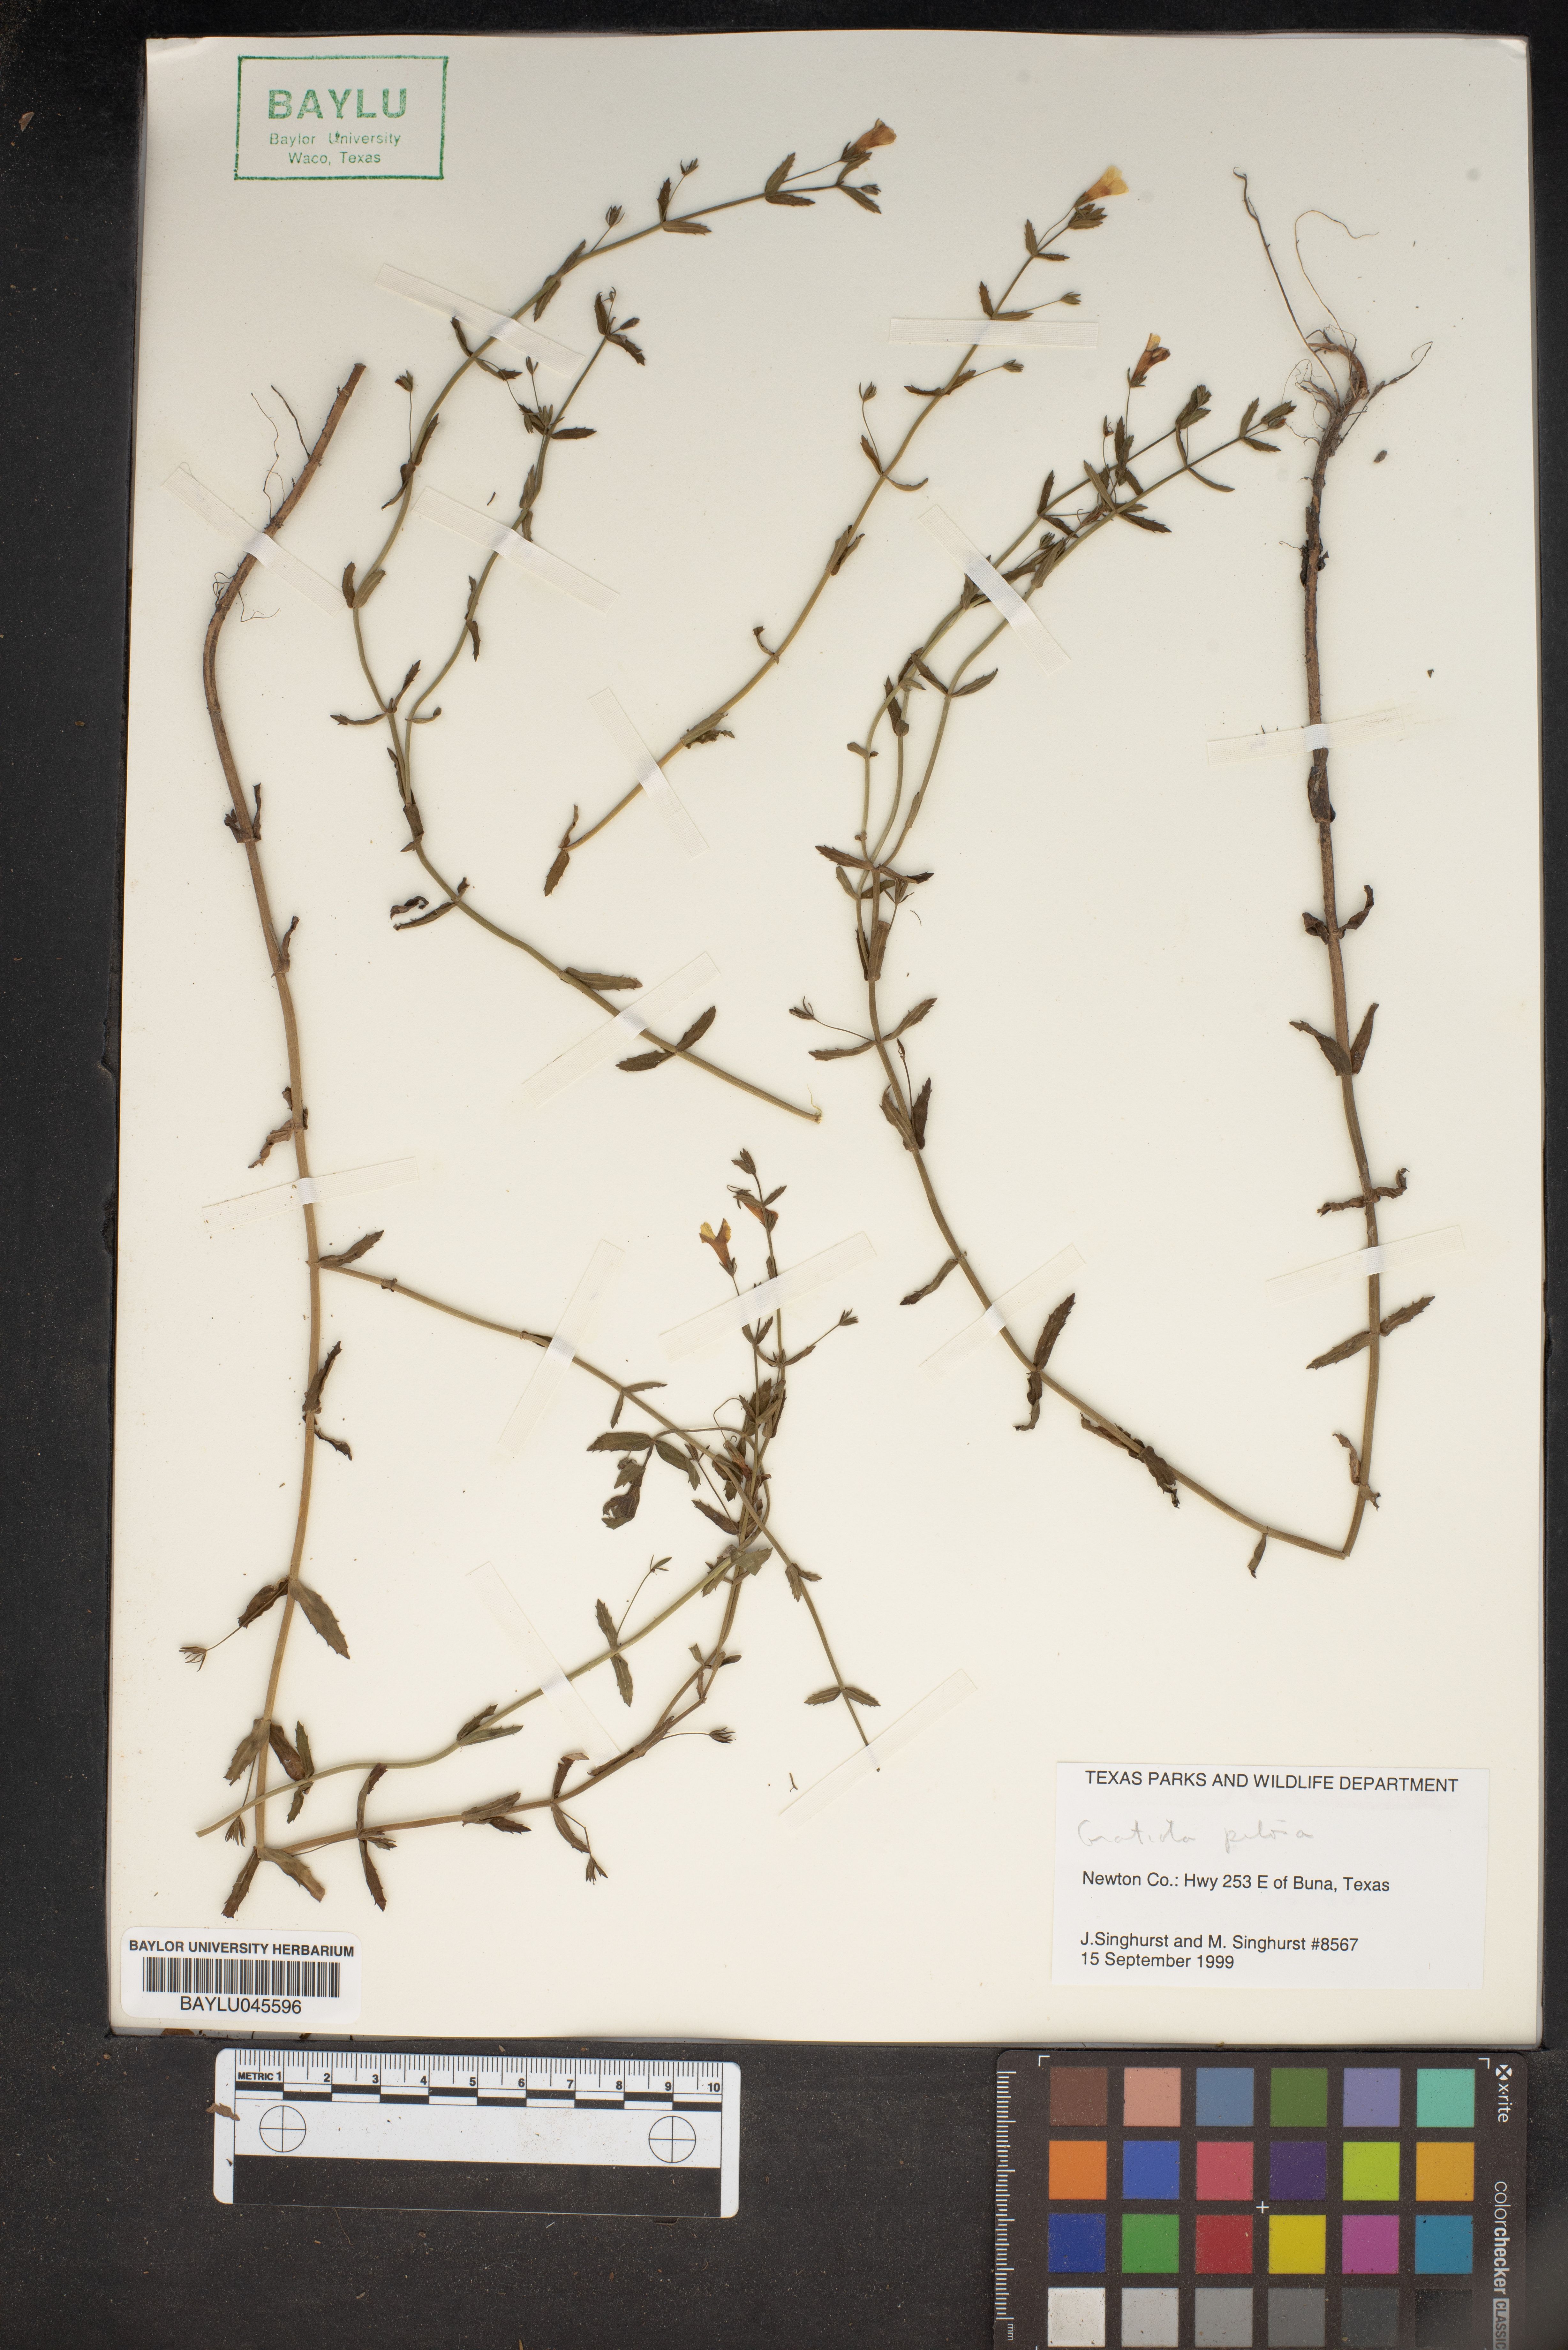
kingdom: Plantae
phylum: Tracheophyta
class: Magnoliopsida
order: Lamiales
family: Plantaginaceae
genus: Gratiola
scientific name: Gratiola pilosa
